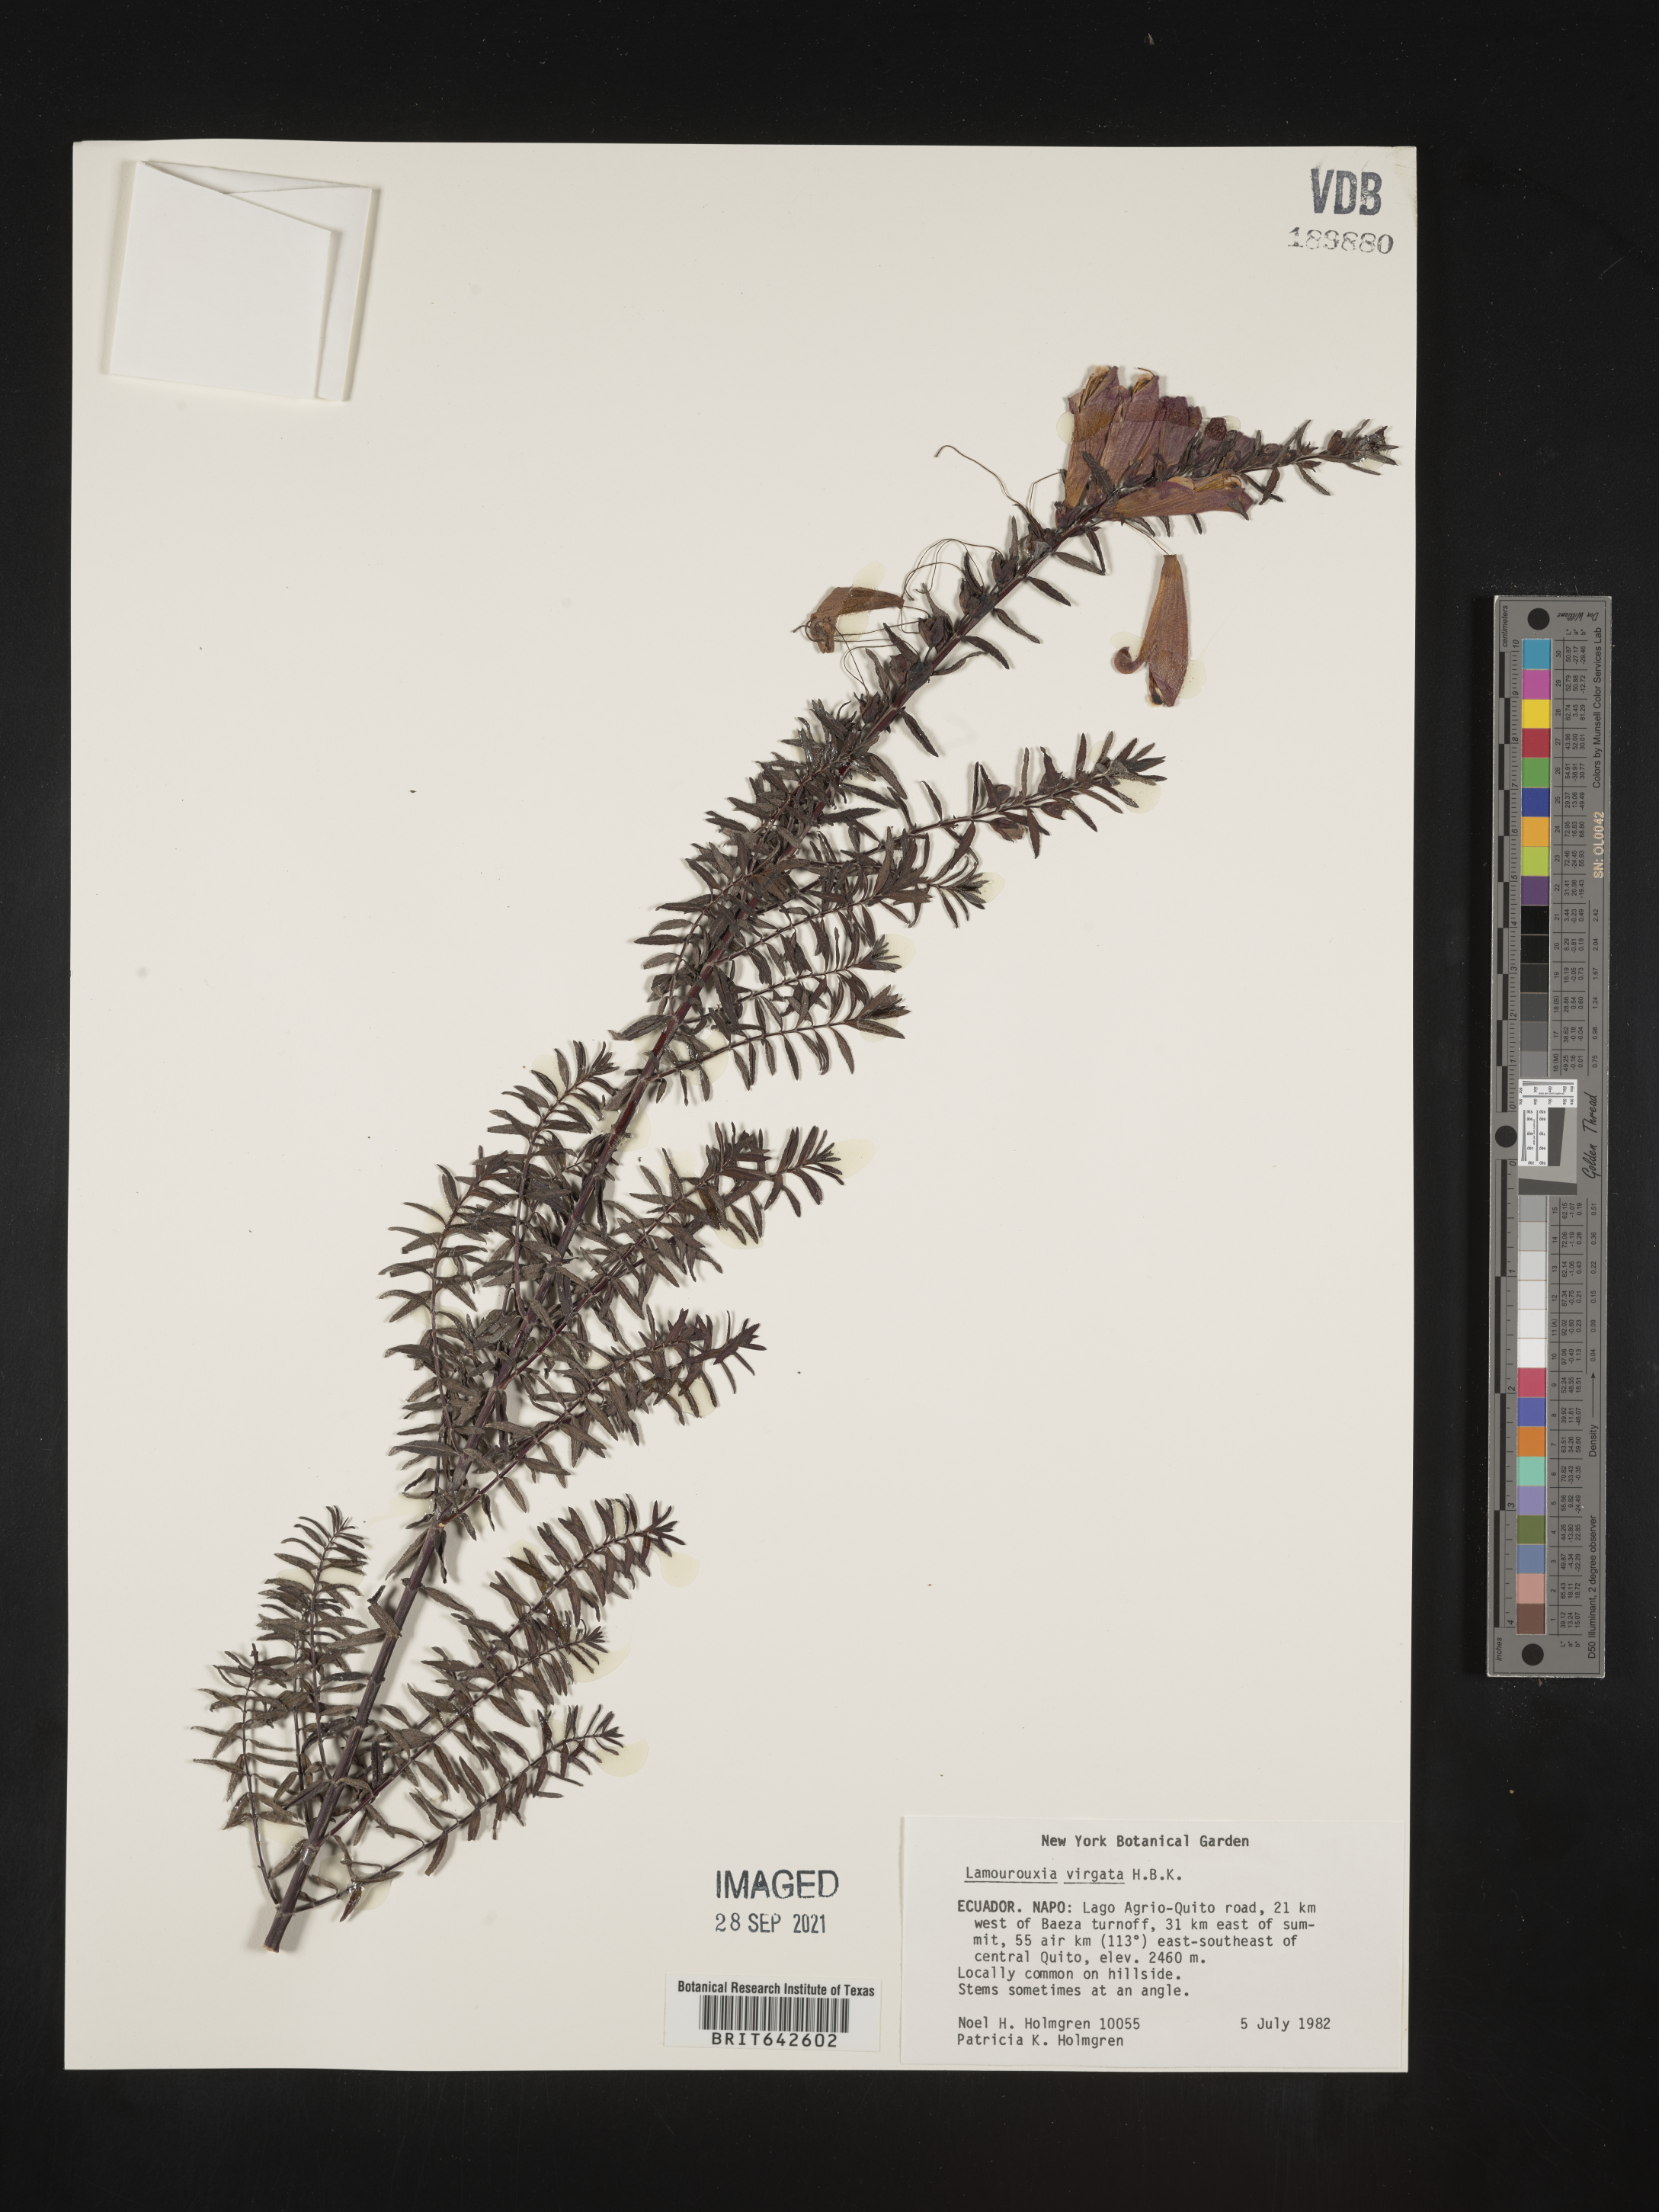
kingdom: Plantae
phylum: Tracheophyta
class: Magnoliopsida
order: Lamiales
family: Orobanchaceae
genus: Lamourouxia
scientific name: Lamourouxia
